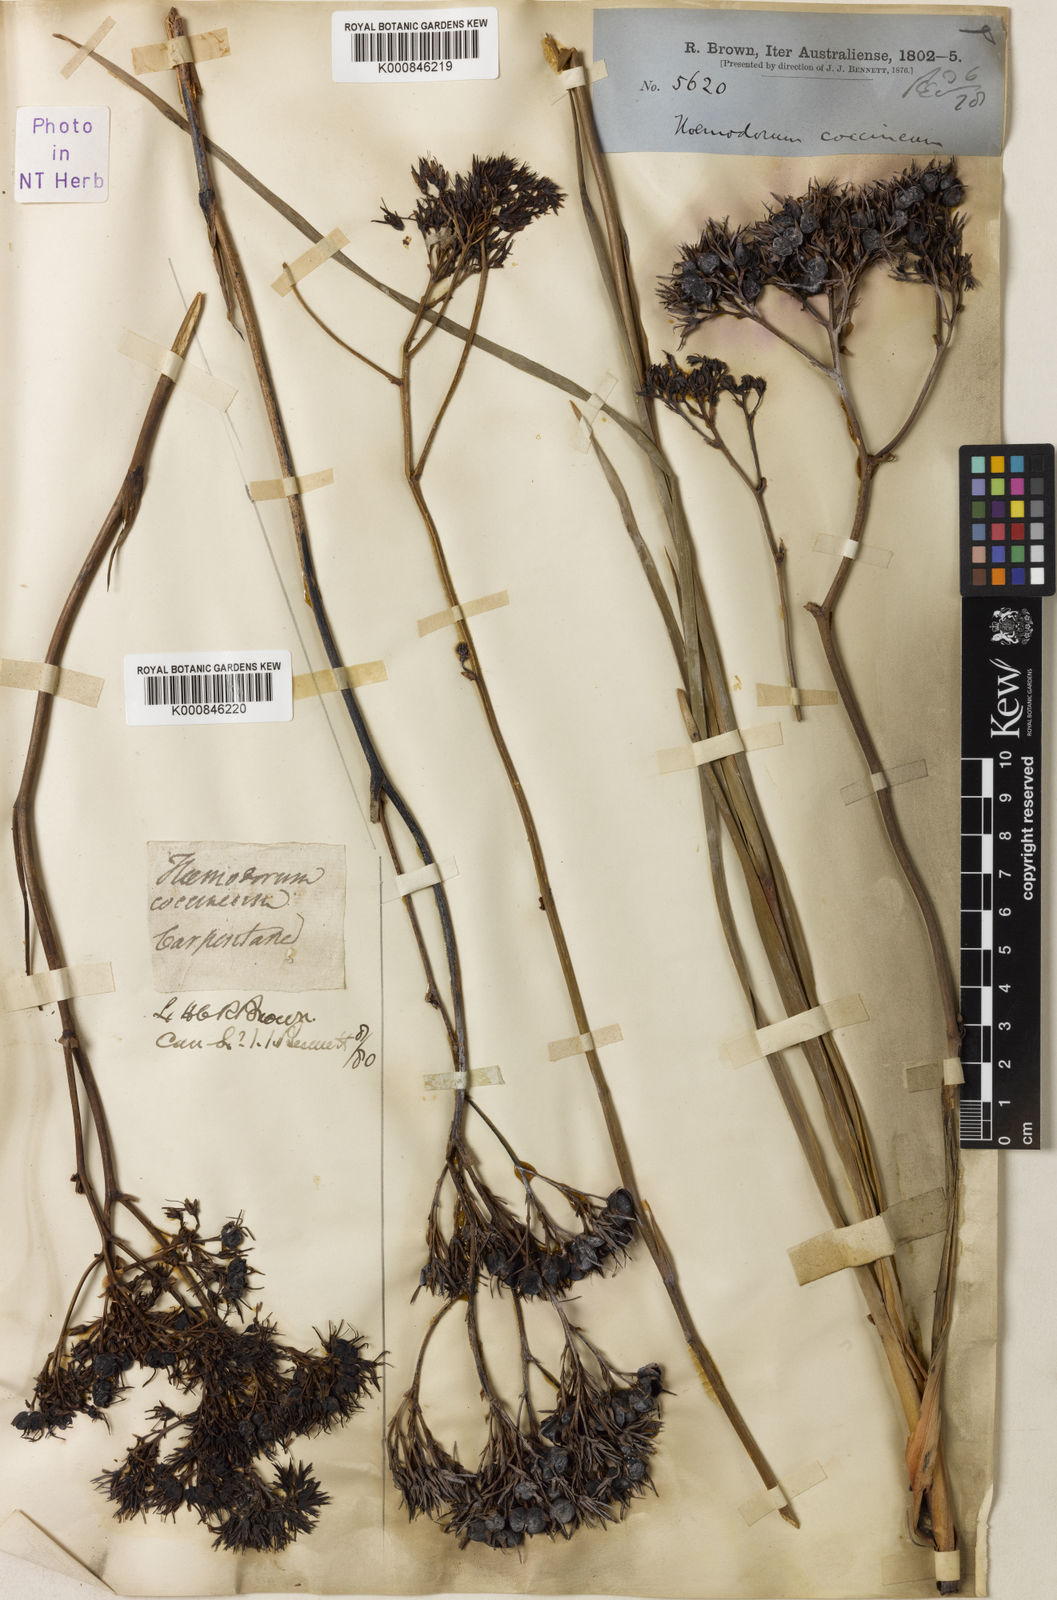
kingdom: Plantae
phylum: Tracheophyta
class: Liliopsida
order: Commelinales
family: Haemodoraceae
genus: Haemodorum
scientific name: Haemodorum coccineum
